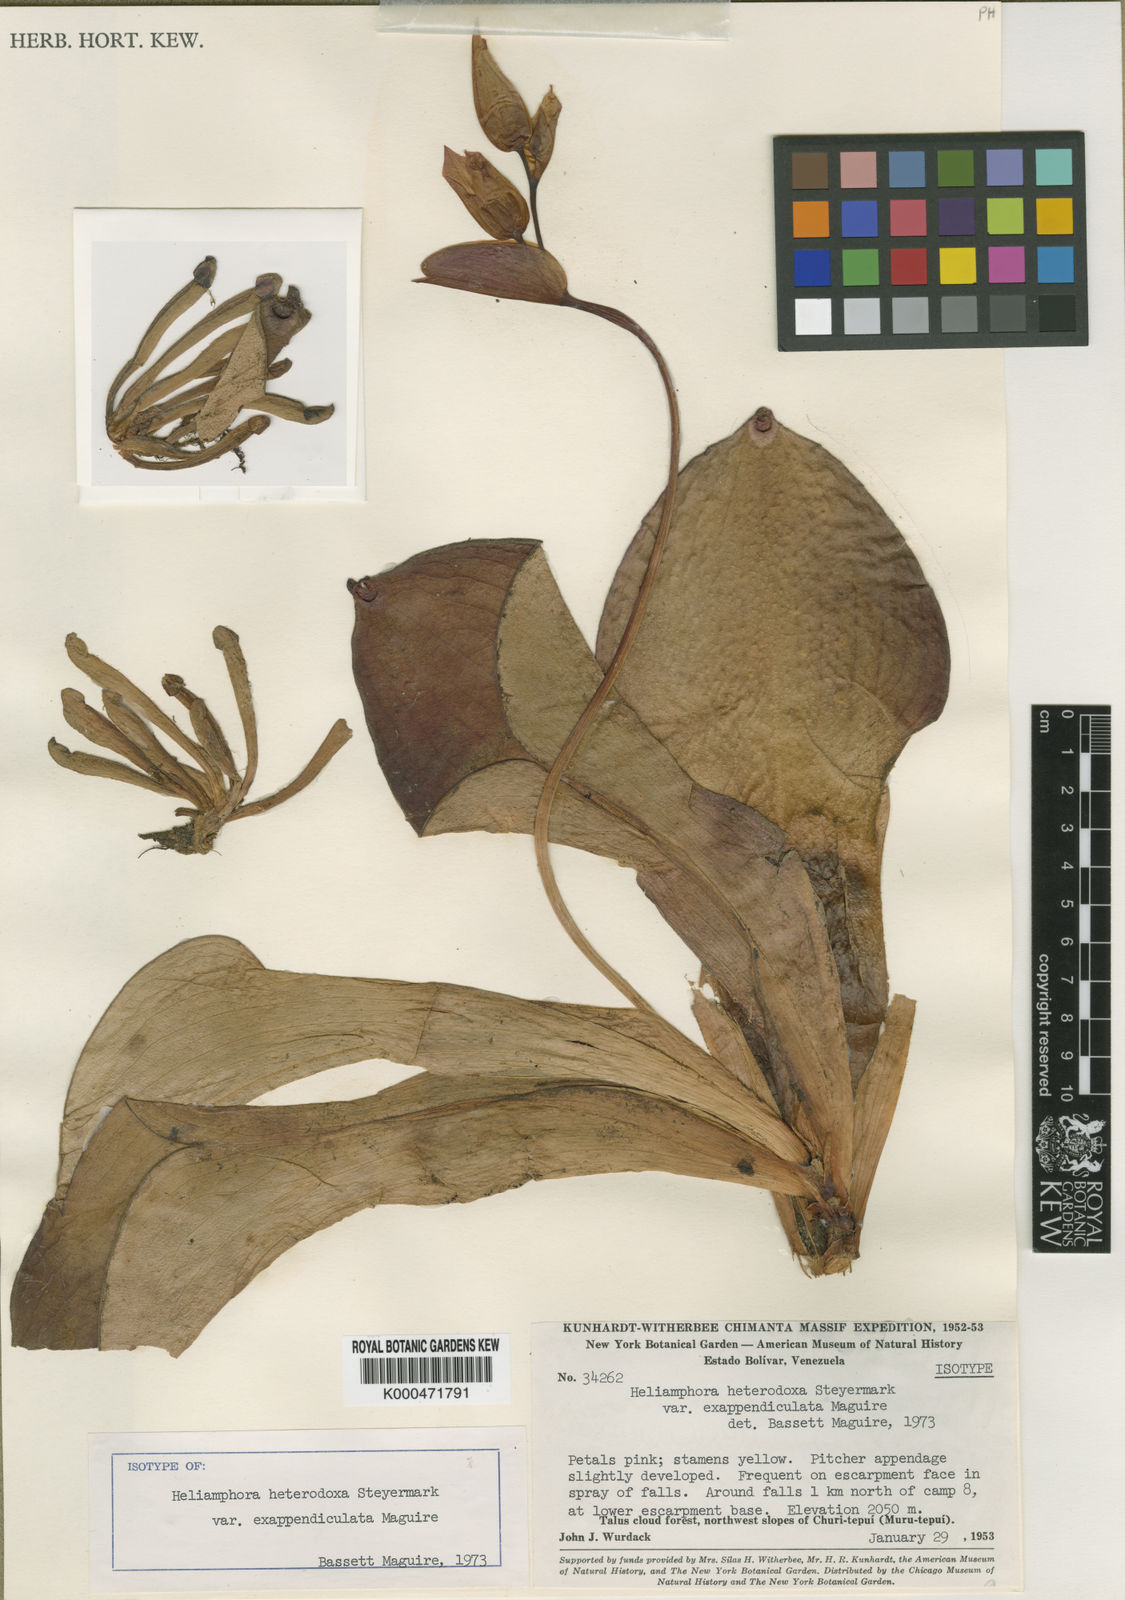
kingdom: Plantae
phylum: Tracheophyta
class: Magnoliopsida
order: Ericales
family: Sarraceniaceae
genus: Heliamphora
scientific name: Heliamphora exappendiculata
